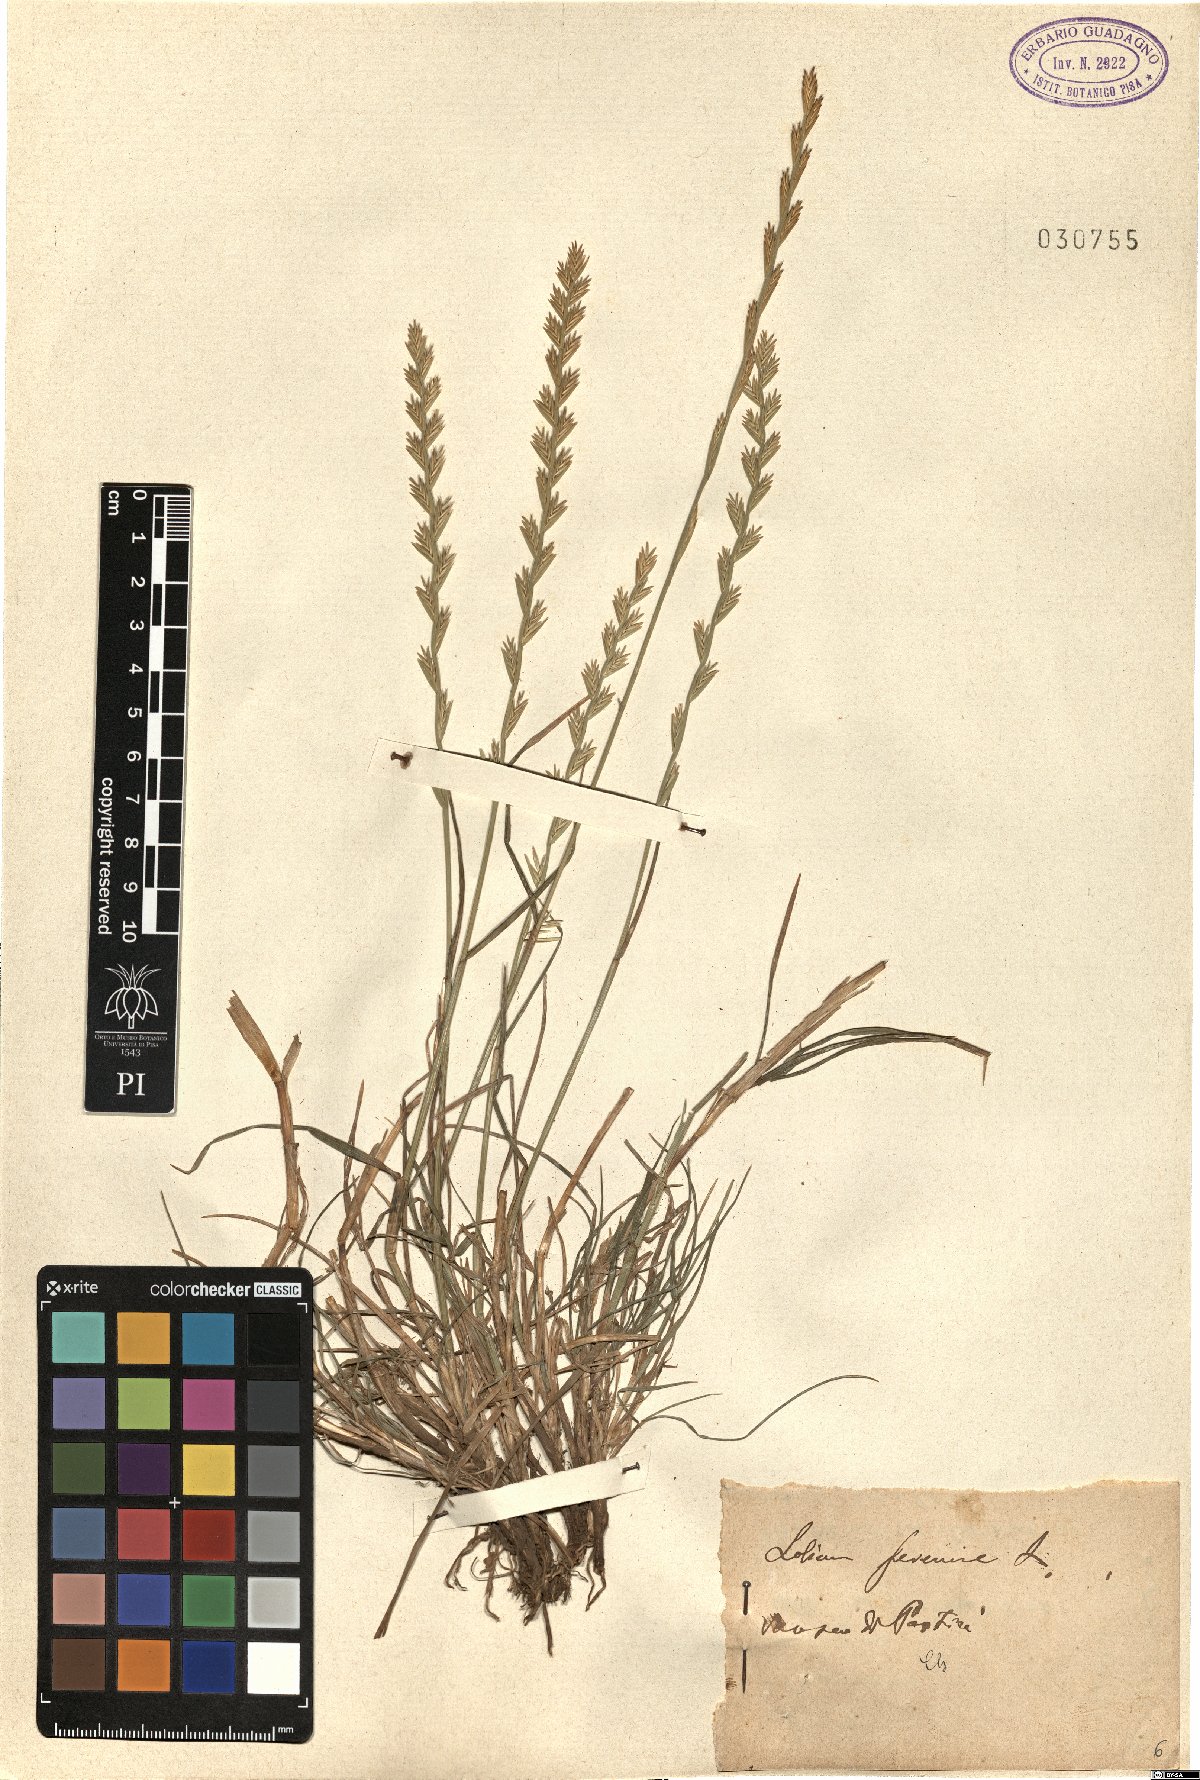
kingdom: Plantae
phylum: Tracheophyta
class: Liliopsida
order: Poales
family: Poaceae
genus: Lolium
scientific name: Lolium perenne
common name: Perennial ryegrass
